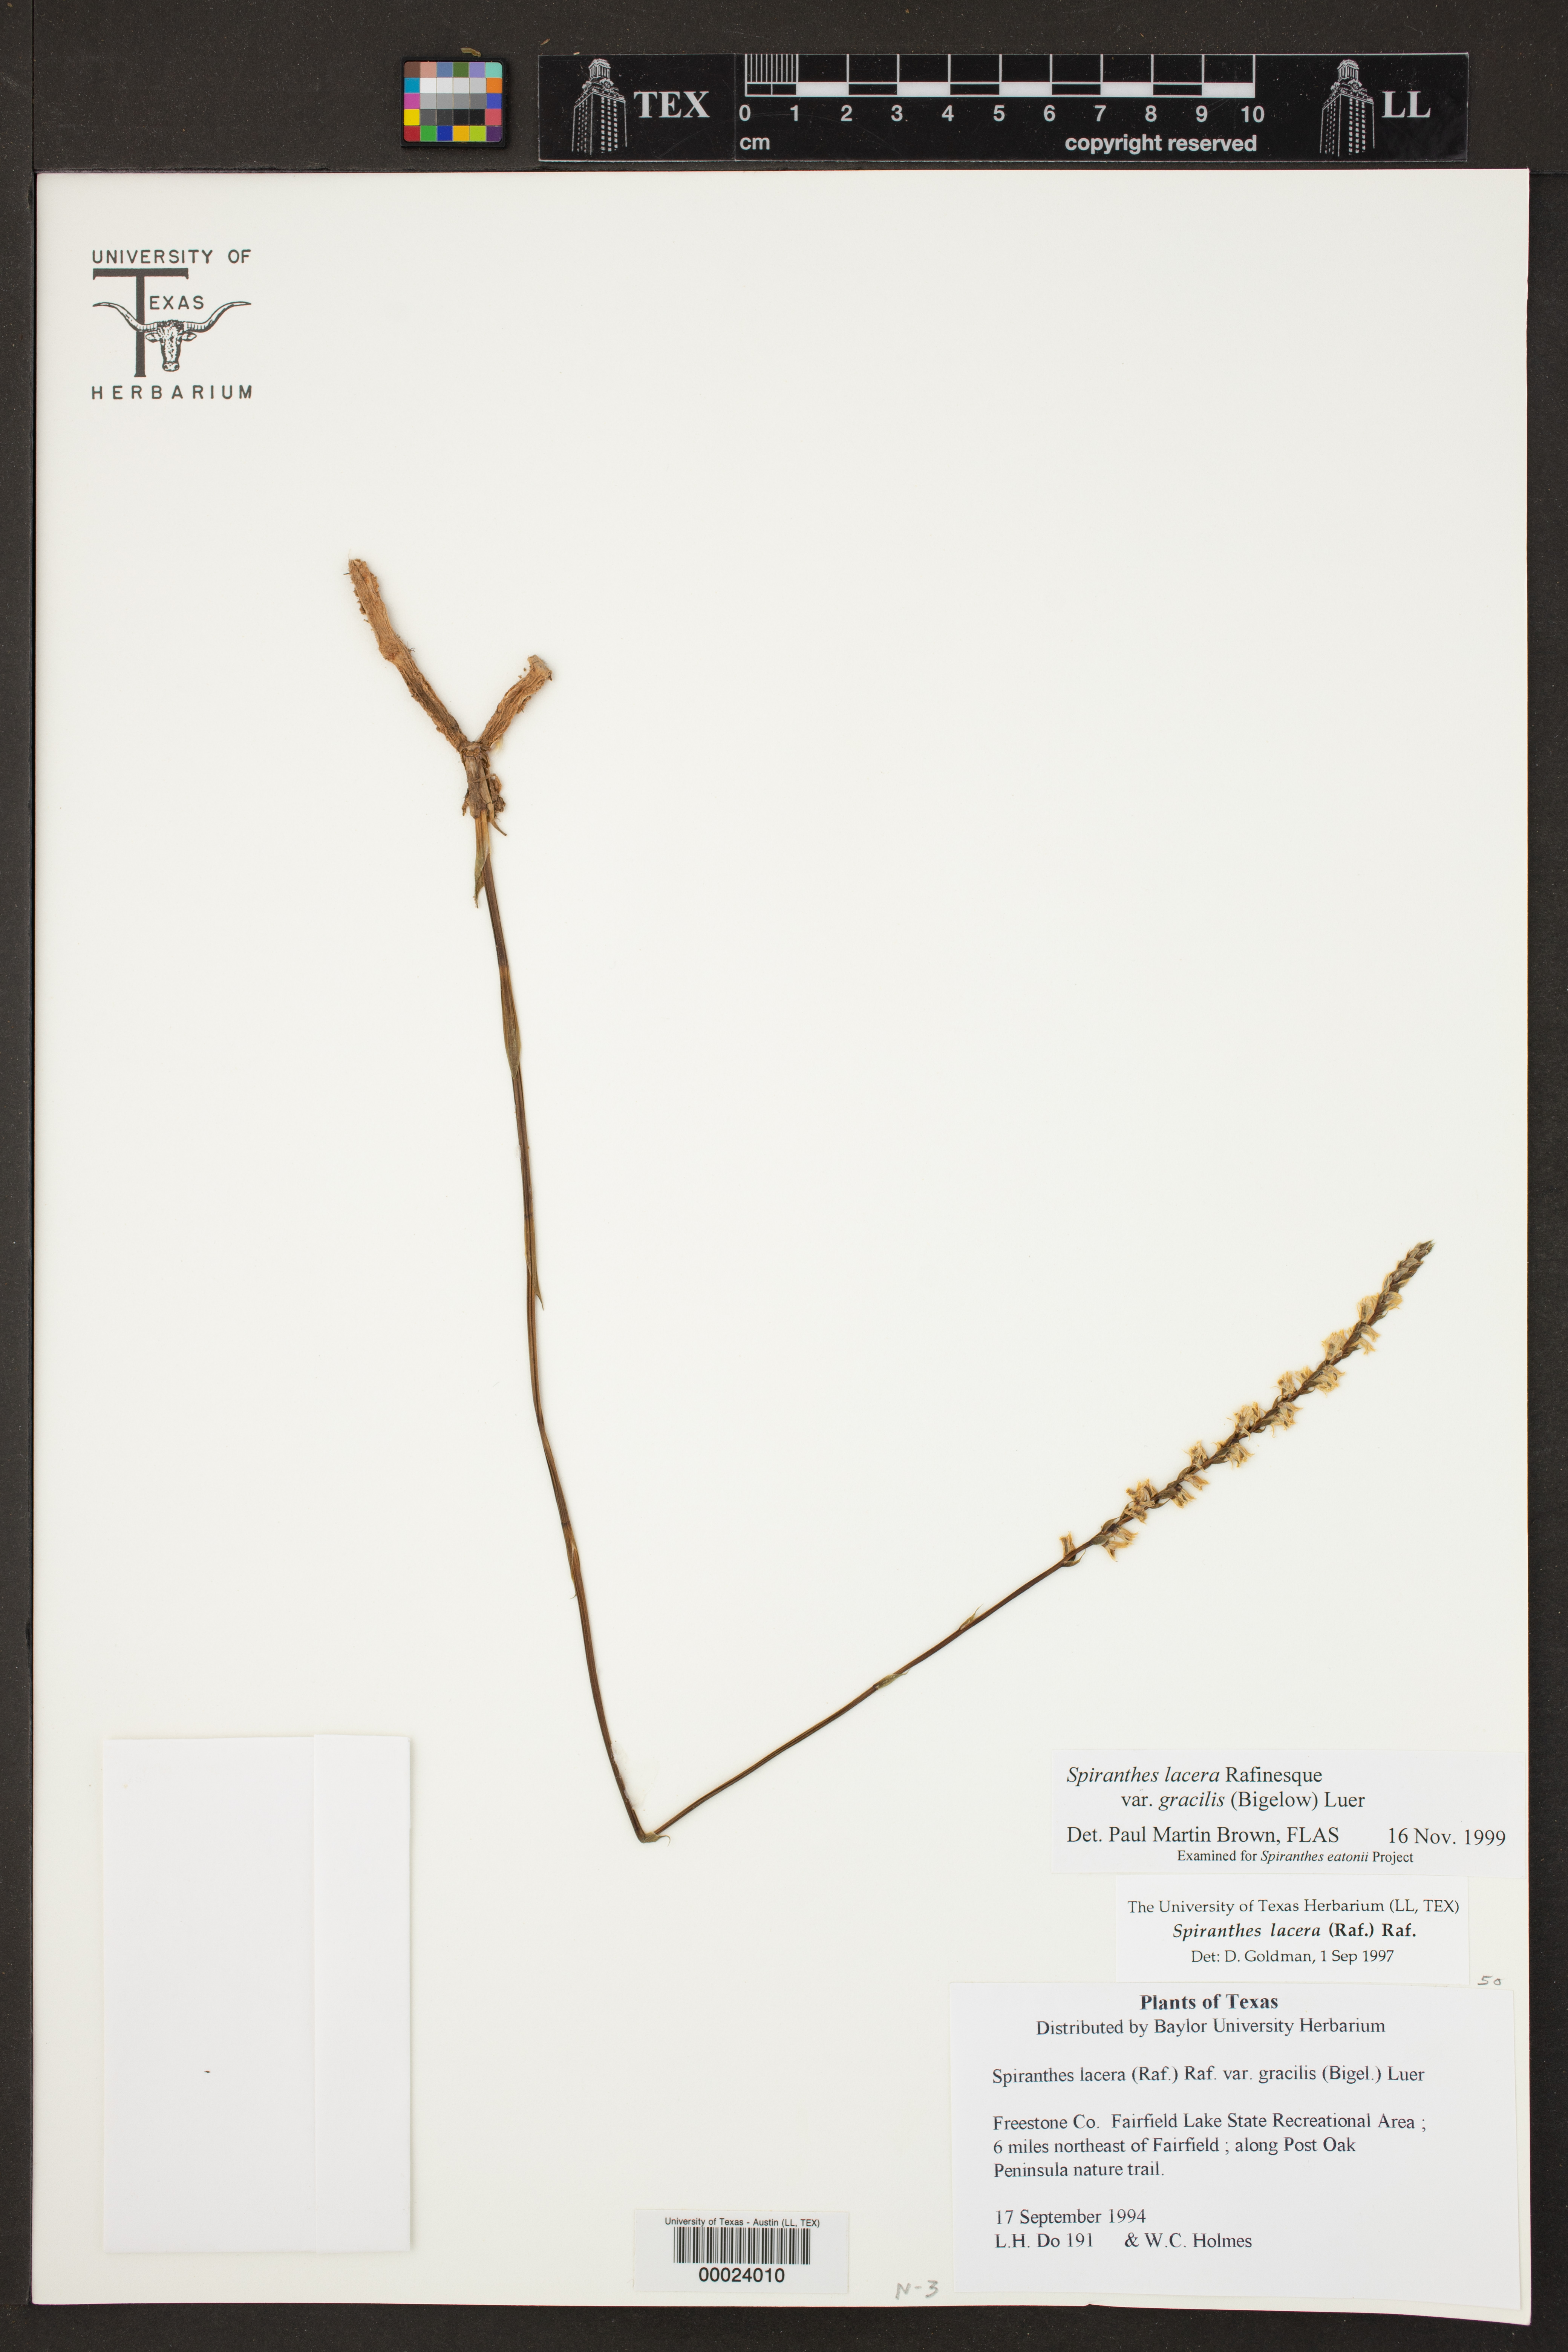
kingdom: Plantae
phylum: Tracheophyta
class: Liliopsida
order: Asparagales
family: Orchidaceae
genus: Spiranthes
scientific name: Spiranthes lacera
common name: Northern slender ladies'-tresses
